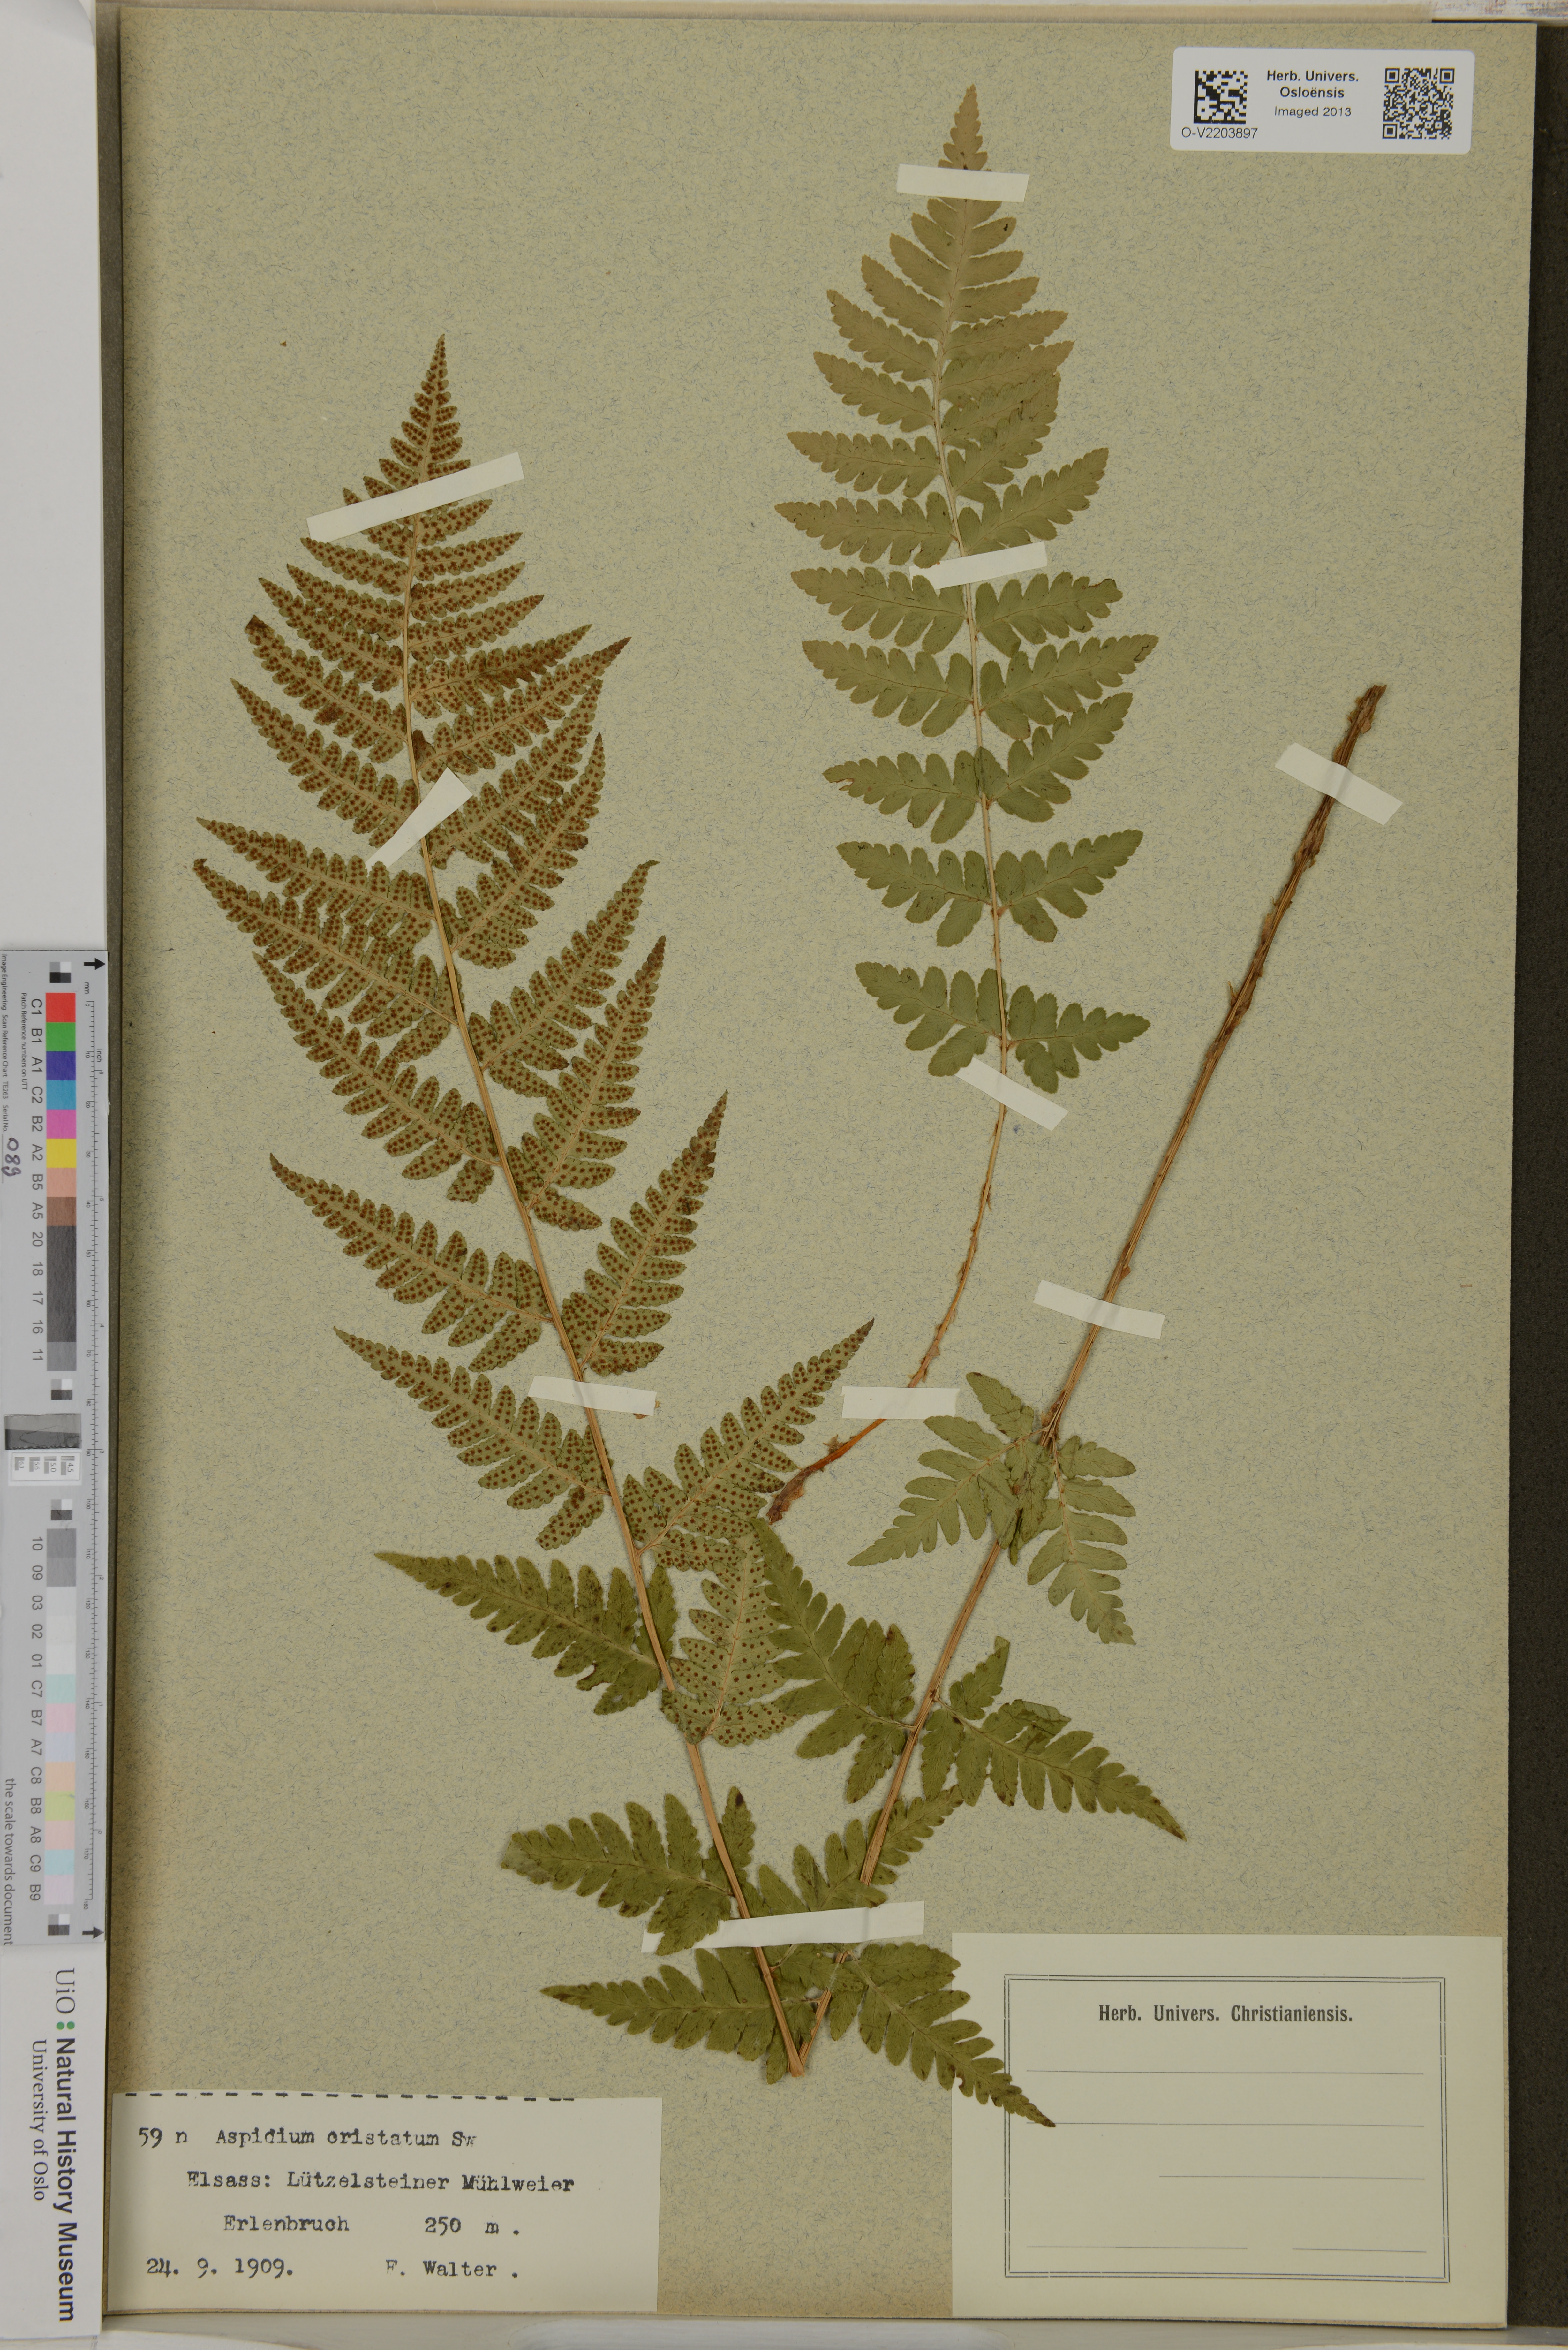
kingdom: Plantae
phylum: Tracheophyta
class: Polypodiopsida
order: Polypodiales
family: Dryopteridaceae
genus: Dryopteris
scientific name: Dryopteris cristata
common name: Crested wood fern
